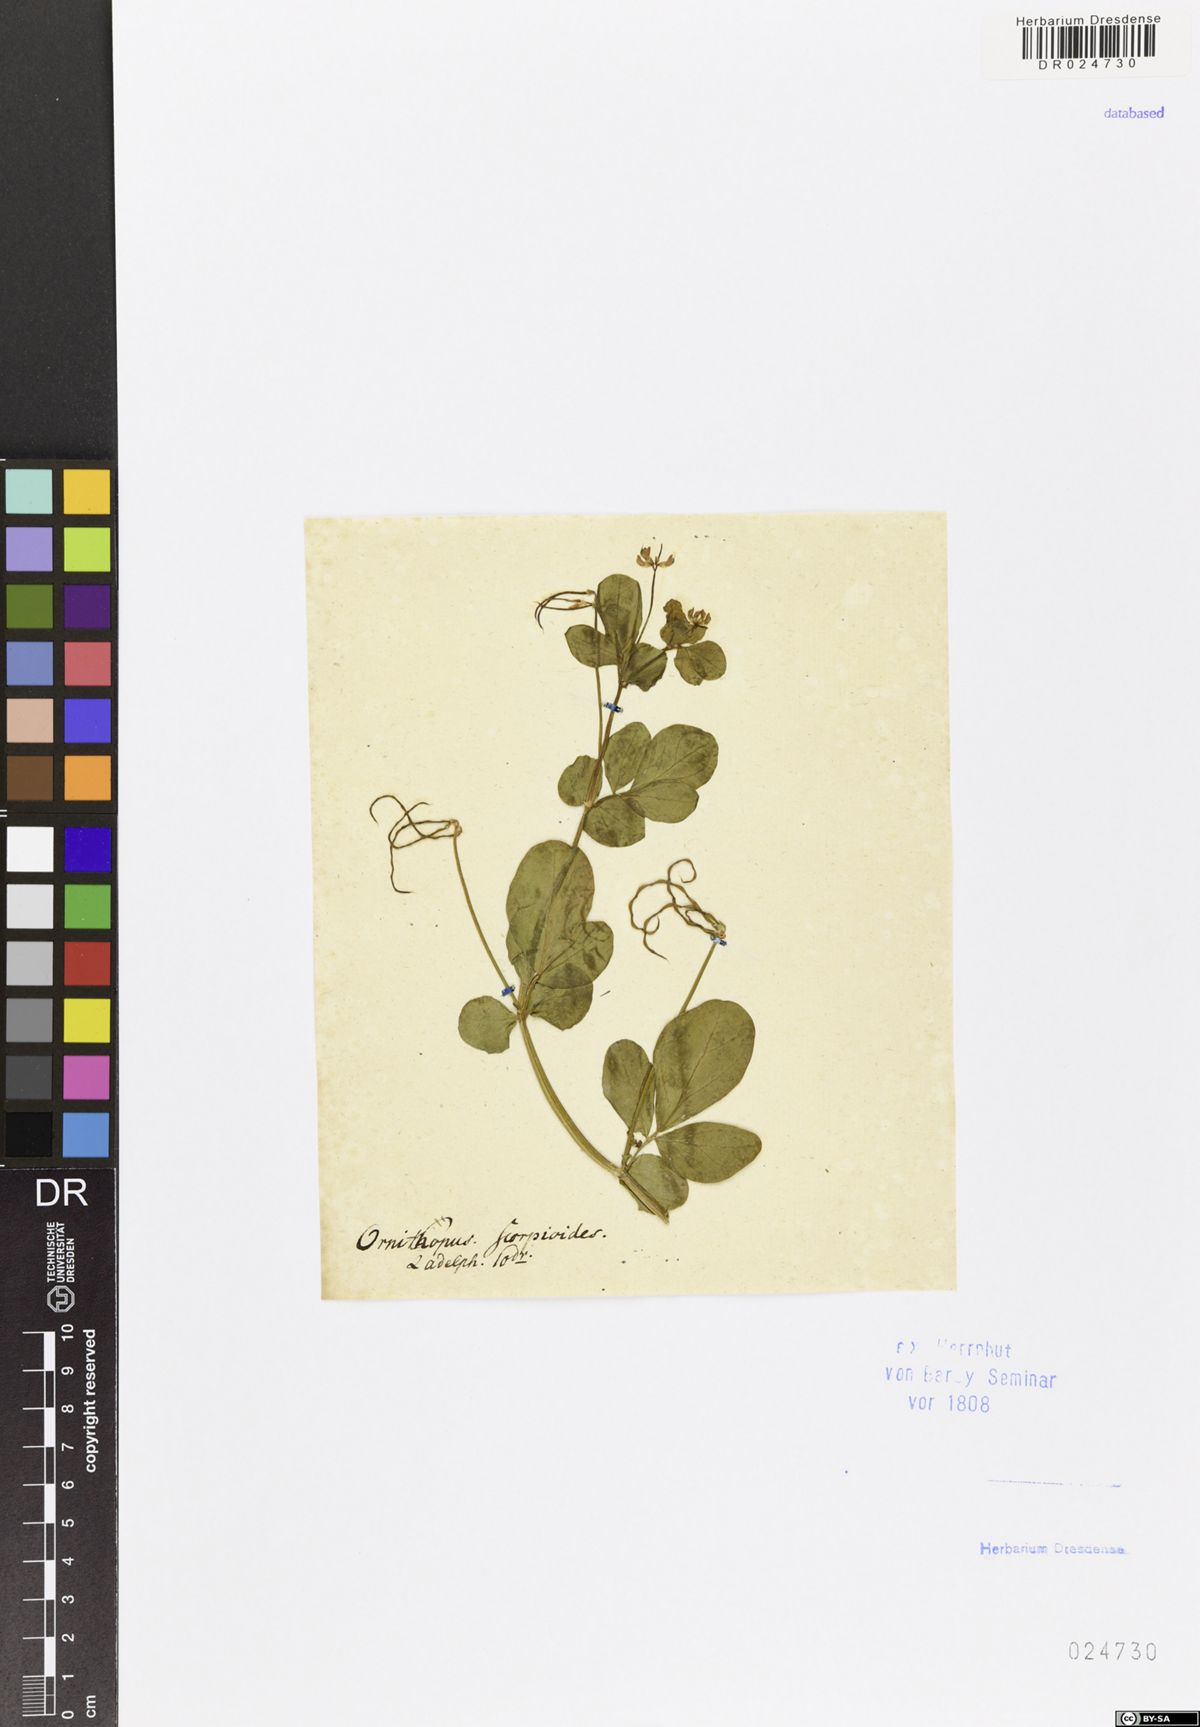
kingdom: Plantae
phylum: Tracheophyta
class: Magnoliopsida
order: Fabales
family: Fabaceae
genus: Coronilla
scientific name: Coronilla scorpioides
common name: Annual scorpion-vetch
